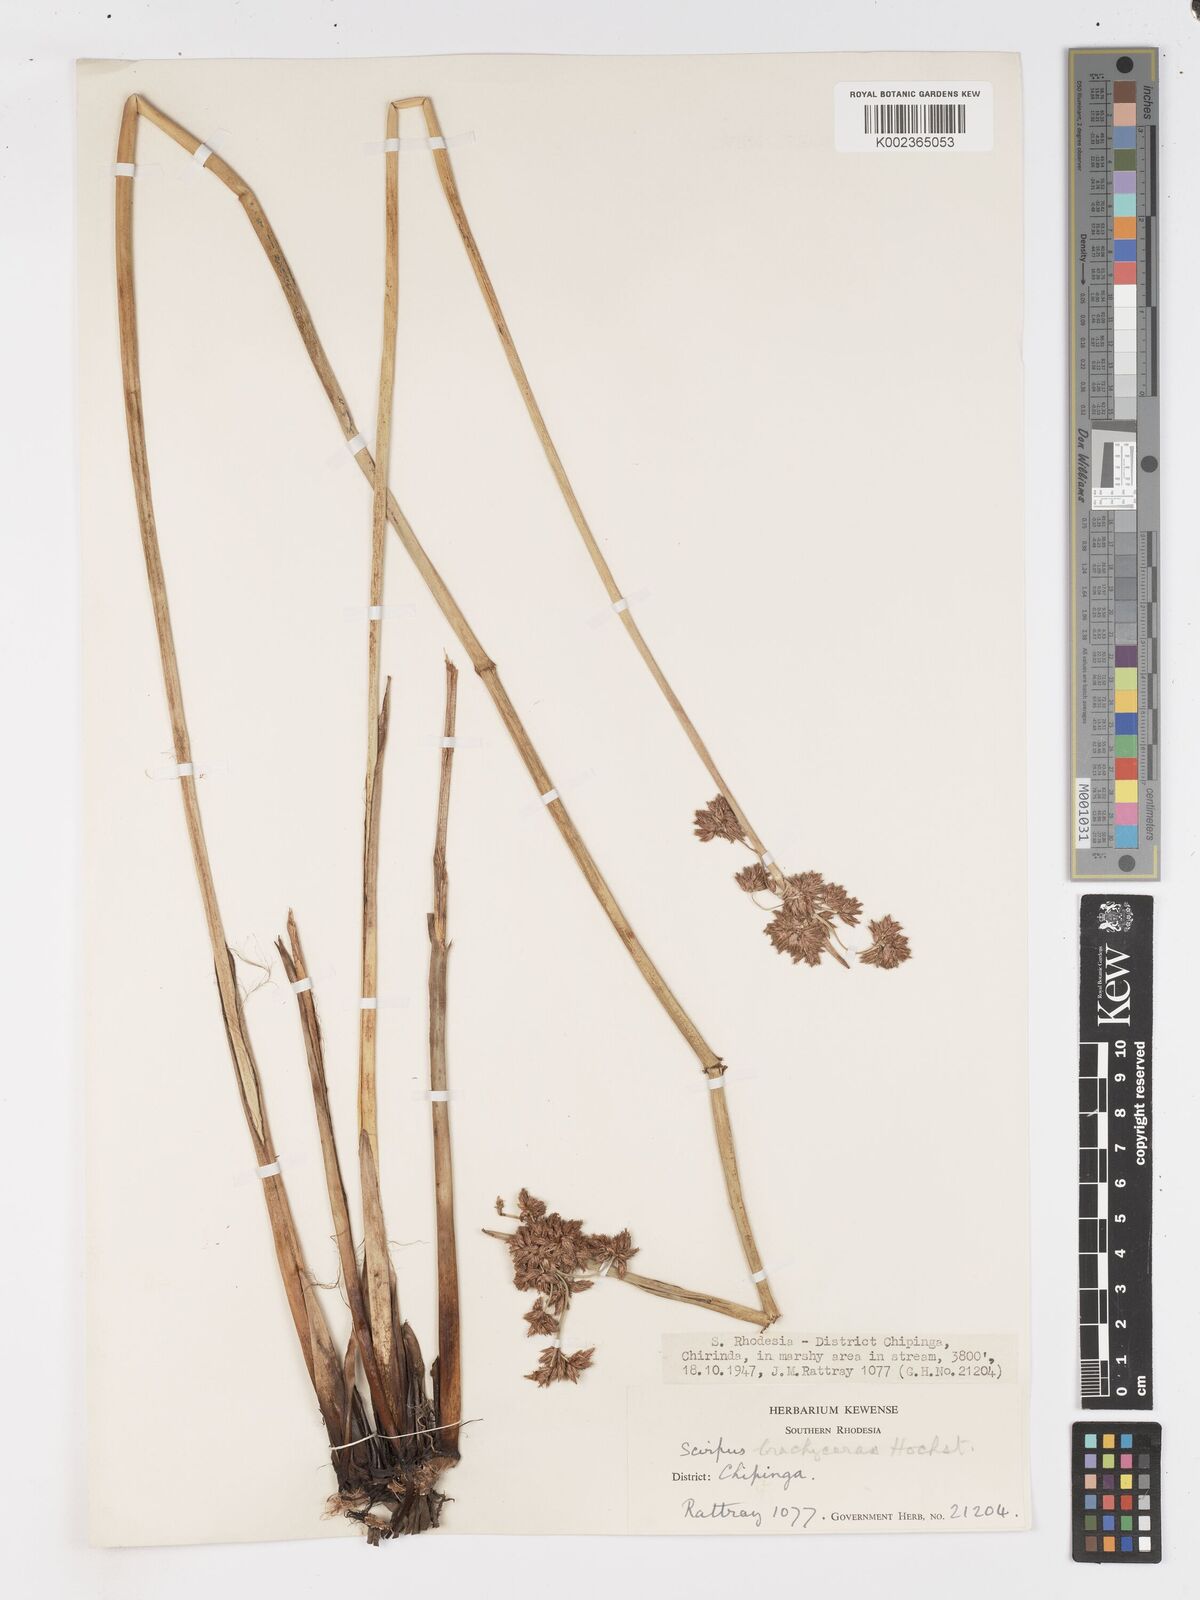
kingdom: Plantae
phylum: Tracheophyta
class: Liliopsida
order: Poales
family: Cyperaceae
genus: Schoenoplectus
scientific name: Schoenoplectus
